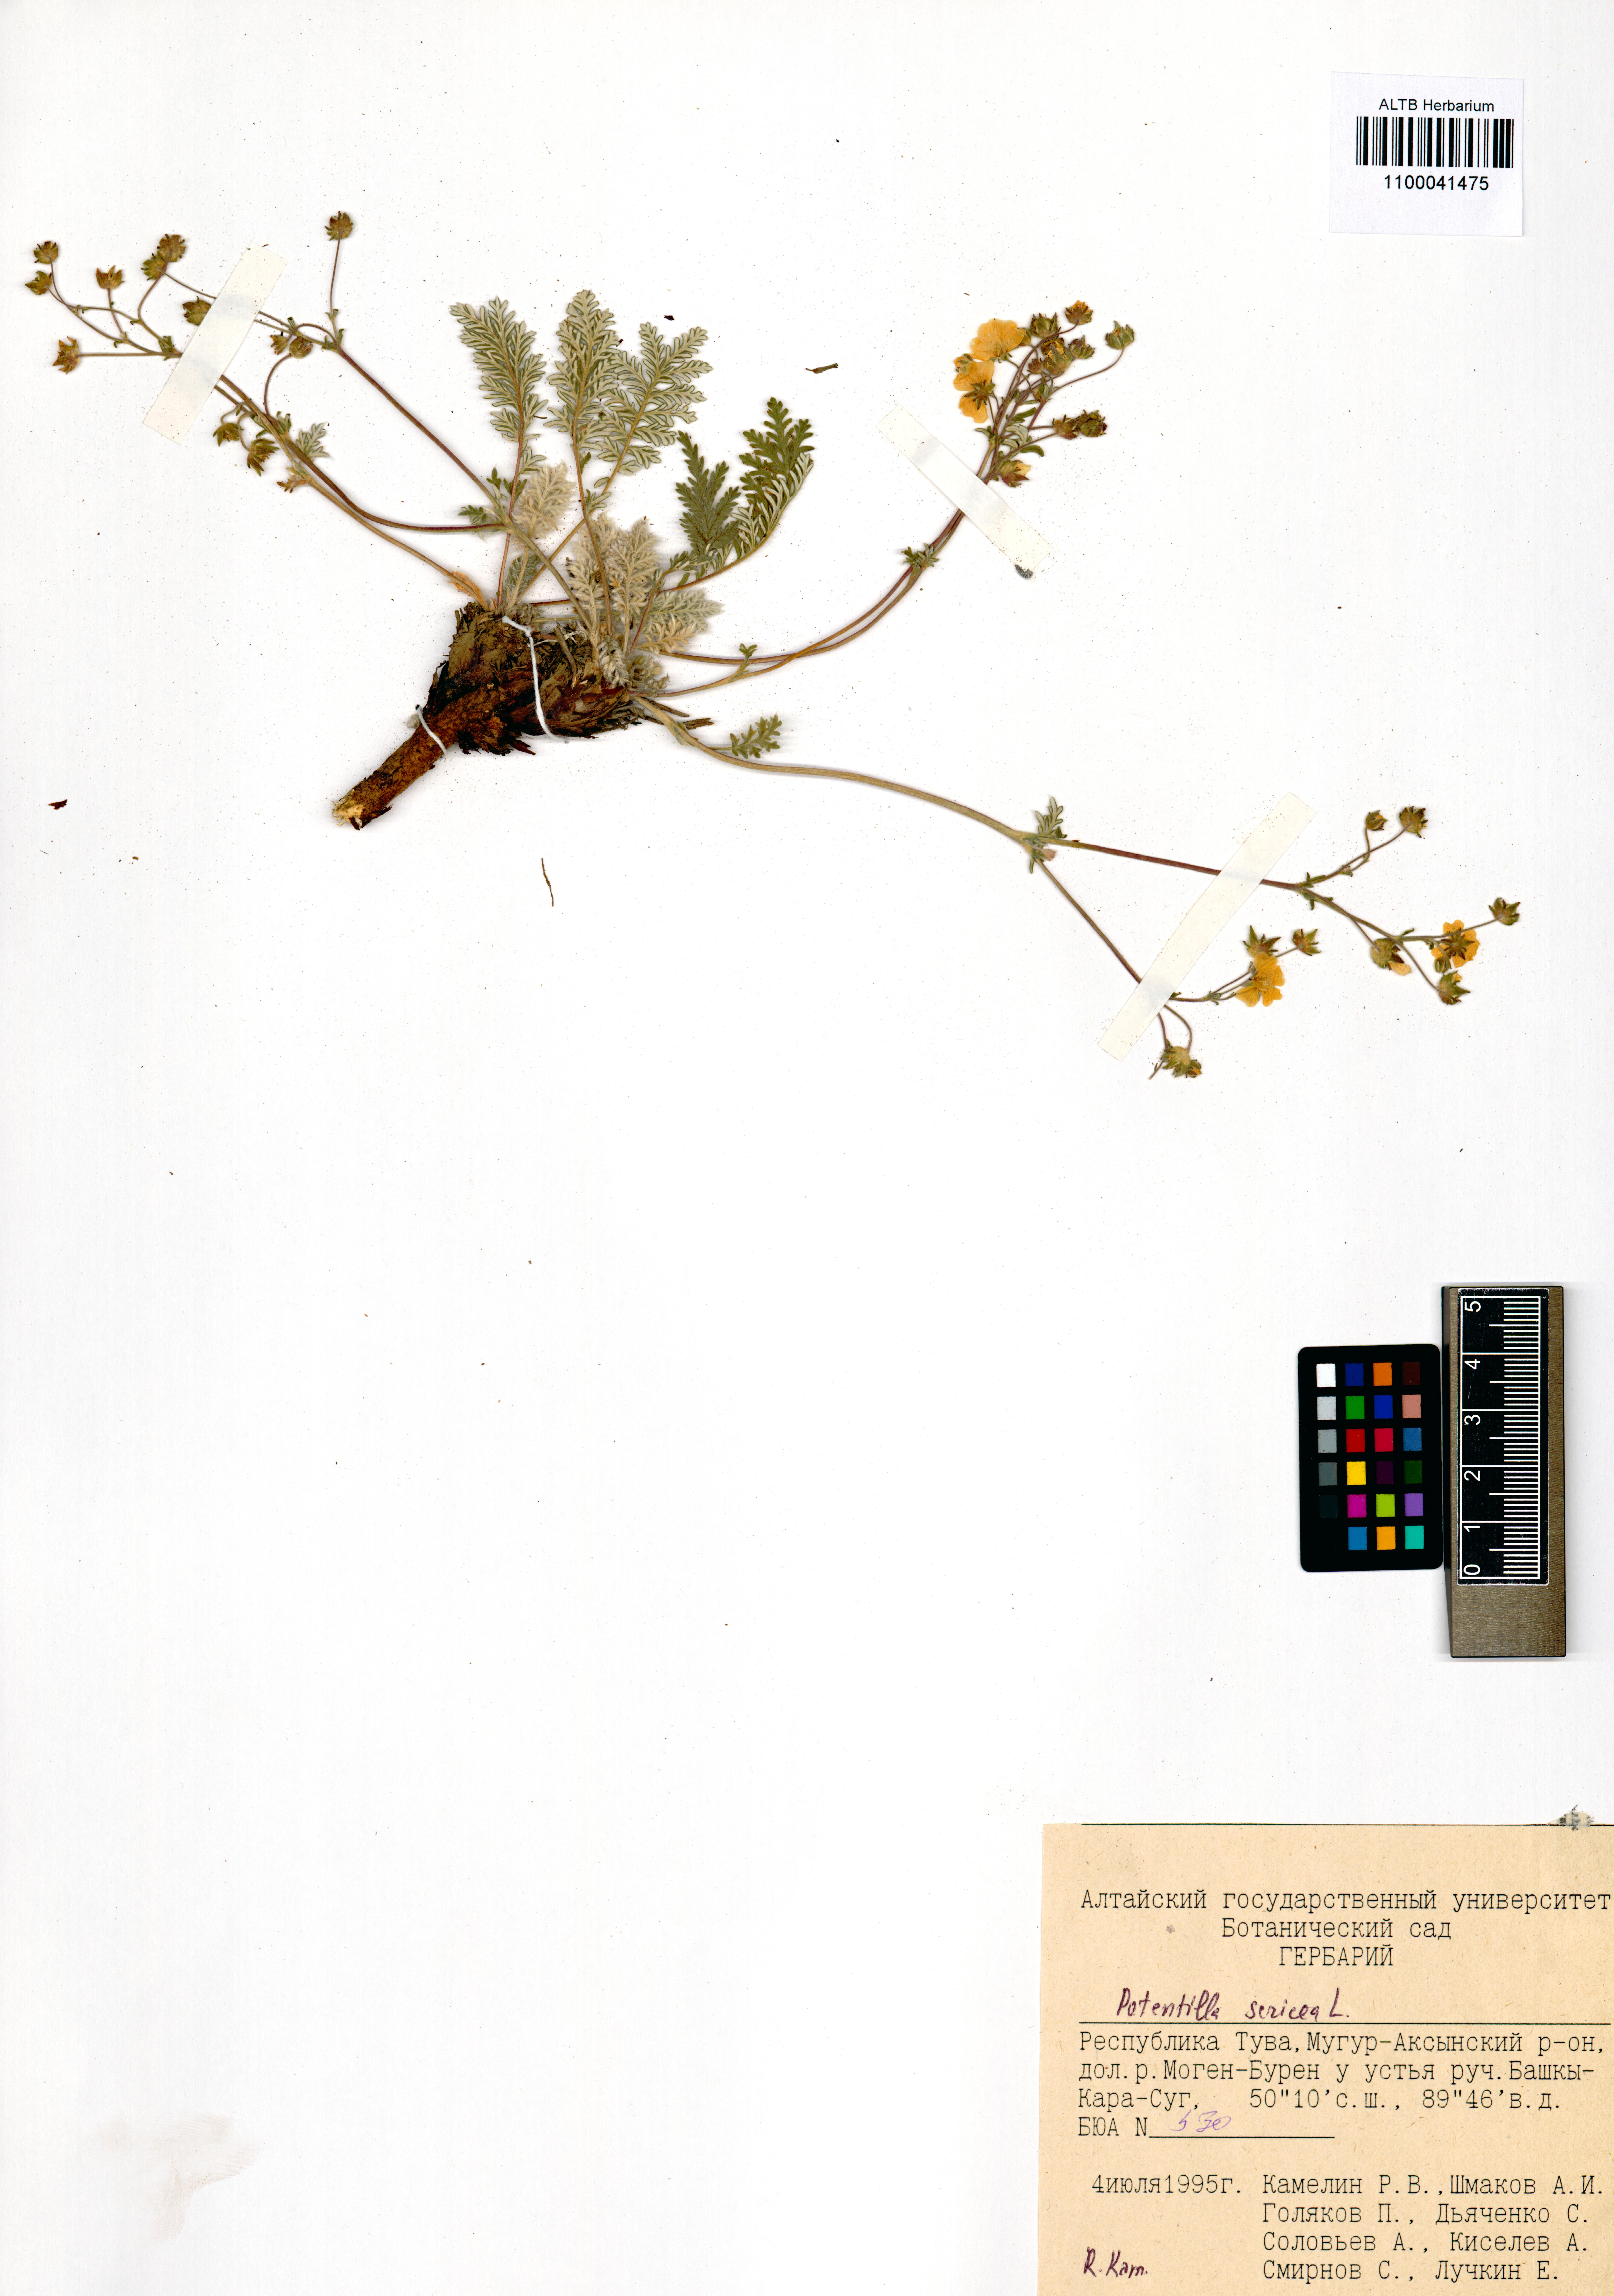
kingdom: Plantae
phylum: Tracheophyta
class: Magnoliopsida
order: Rosales
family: Rosaceae
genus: Potentilla
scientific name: Potentilla sericea
